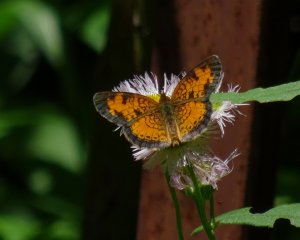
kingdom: Animalia
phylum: Arthropoda
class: Insecta
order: Lepidoptera
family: Nymphalidae
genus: Phyciodes
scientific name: Phyciodes tharos
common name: Pearl Crescent
